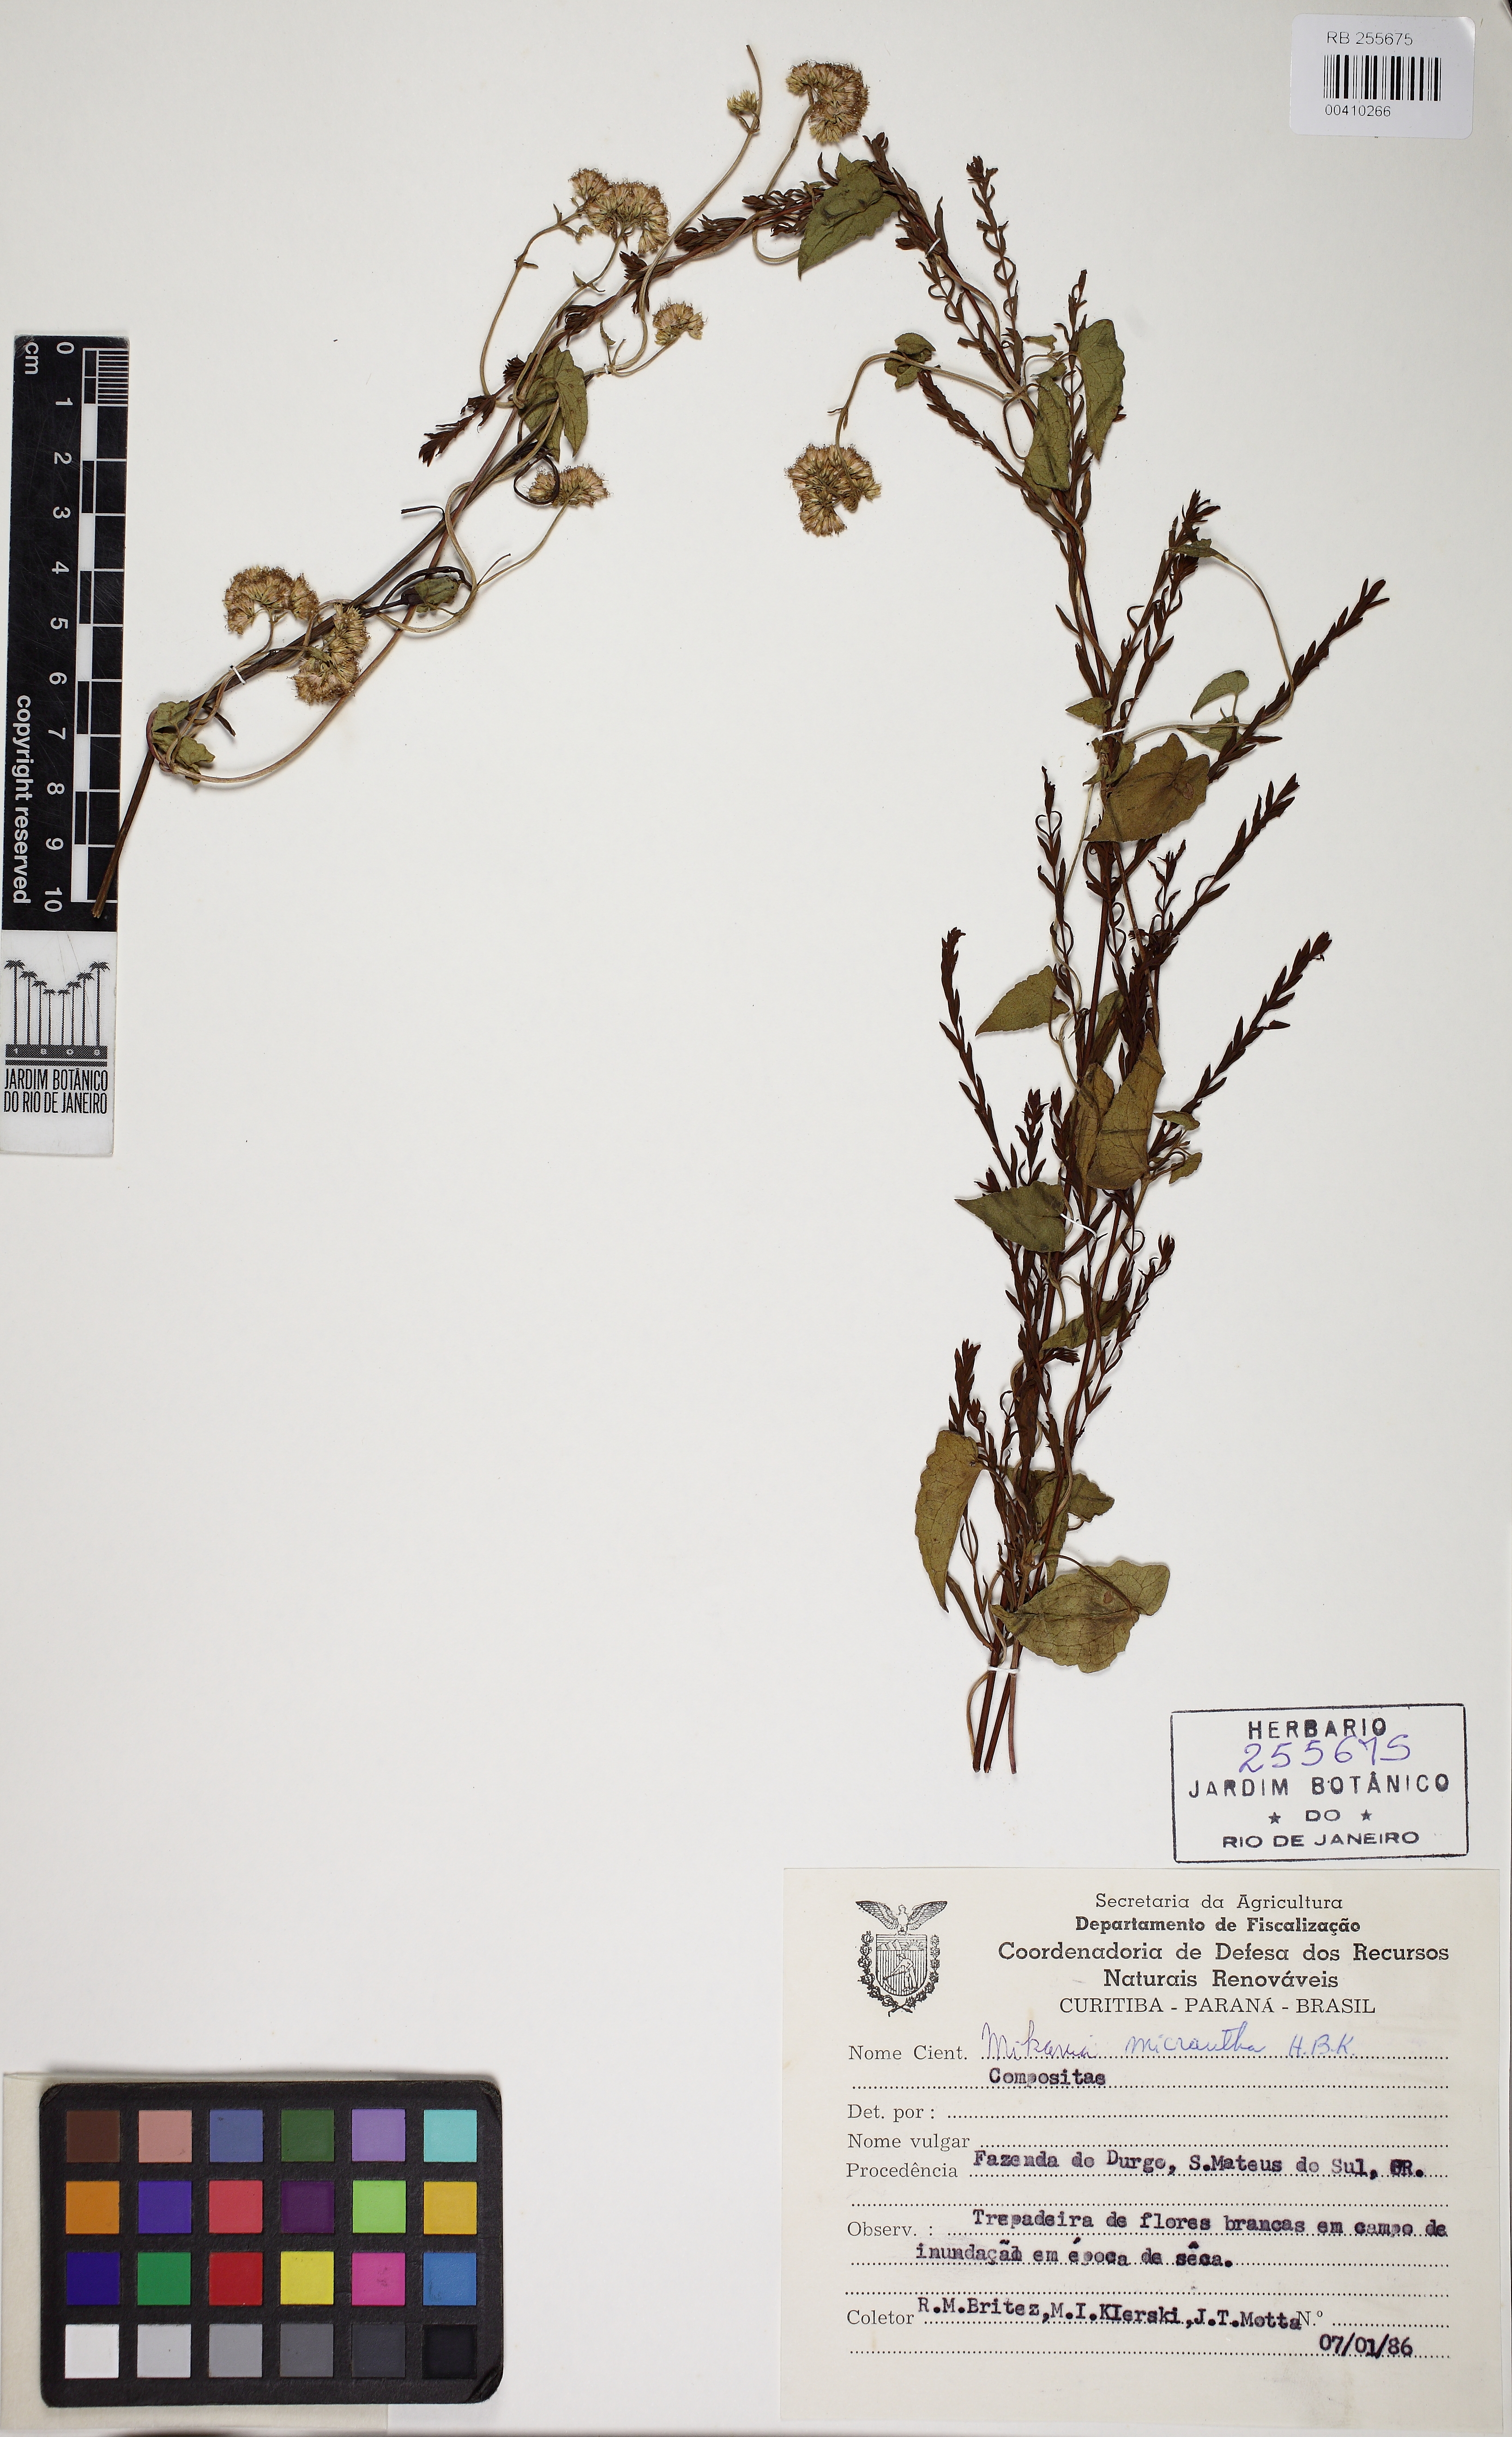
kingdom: Plantae
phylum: Tracheophyta
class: Magnoliopsida
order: Asterales
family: Asteraceae
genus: Mikania
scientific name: Mikania micrantha
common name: Mile-a-minute
